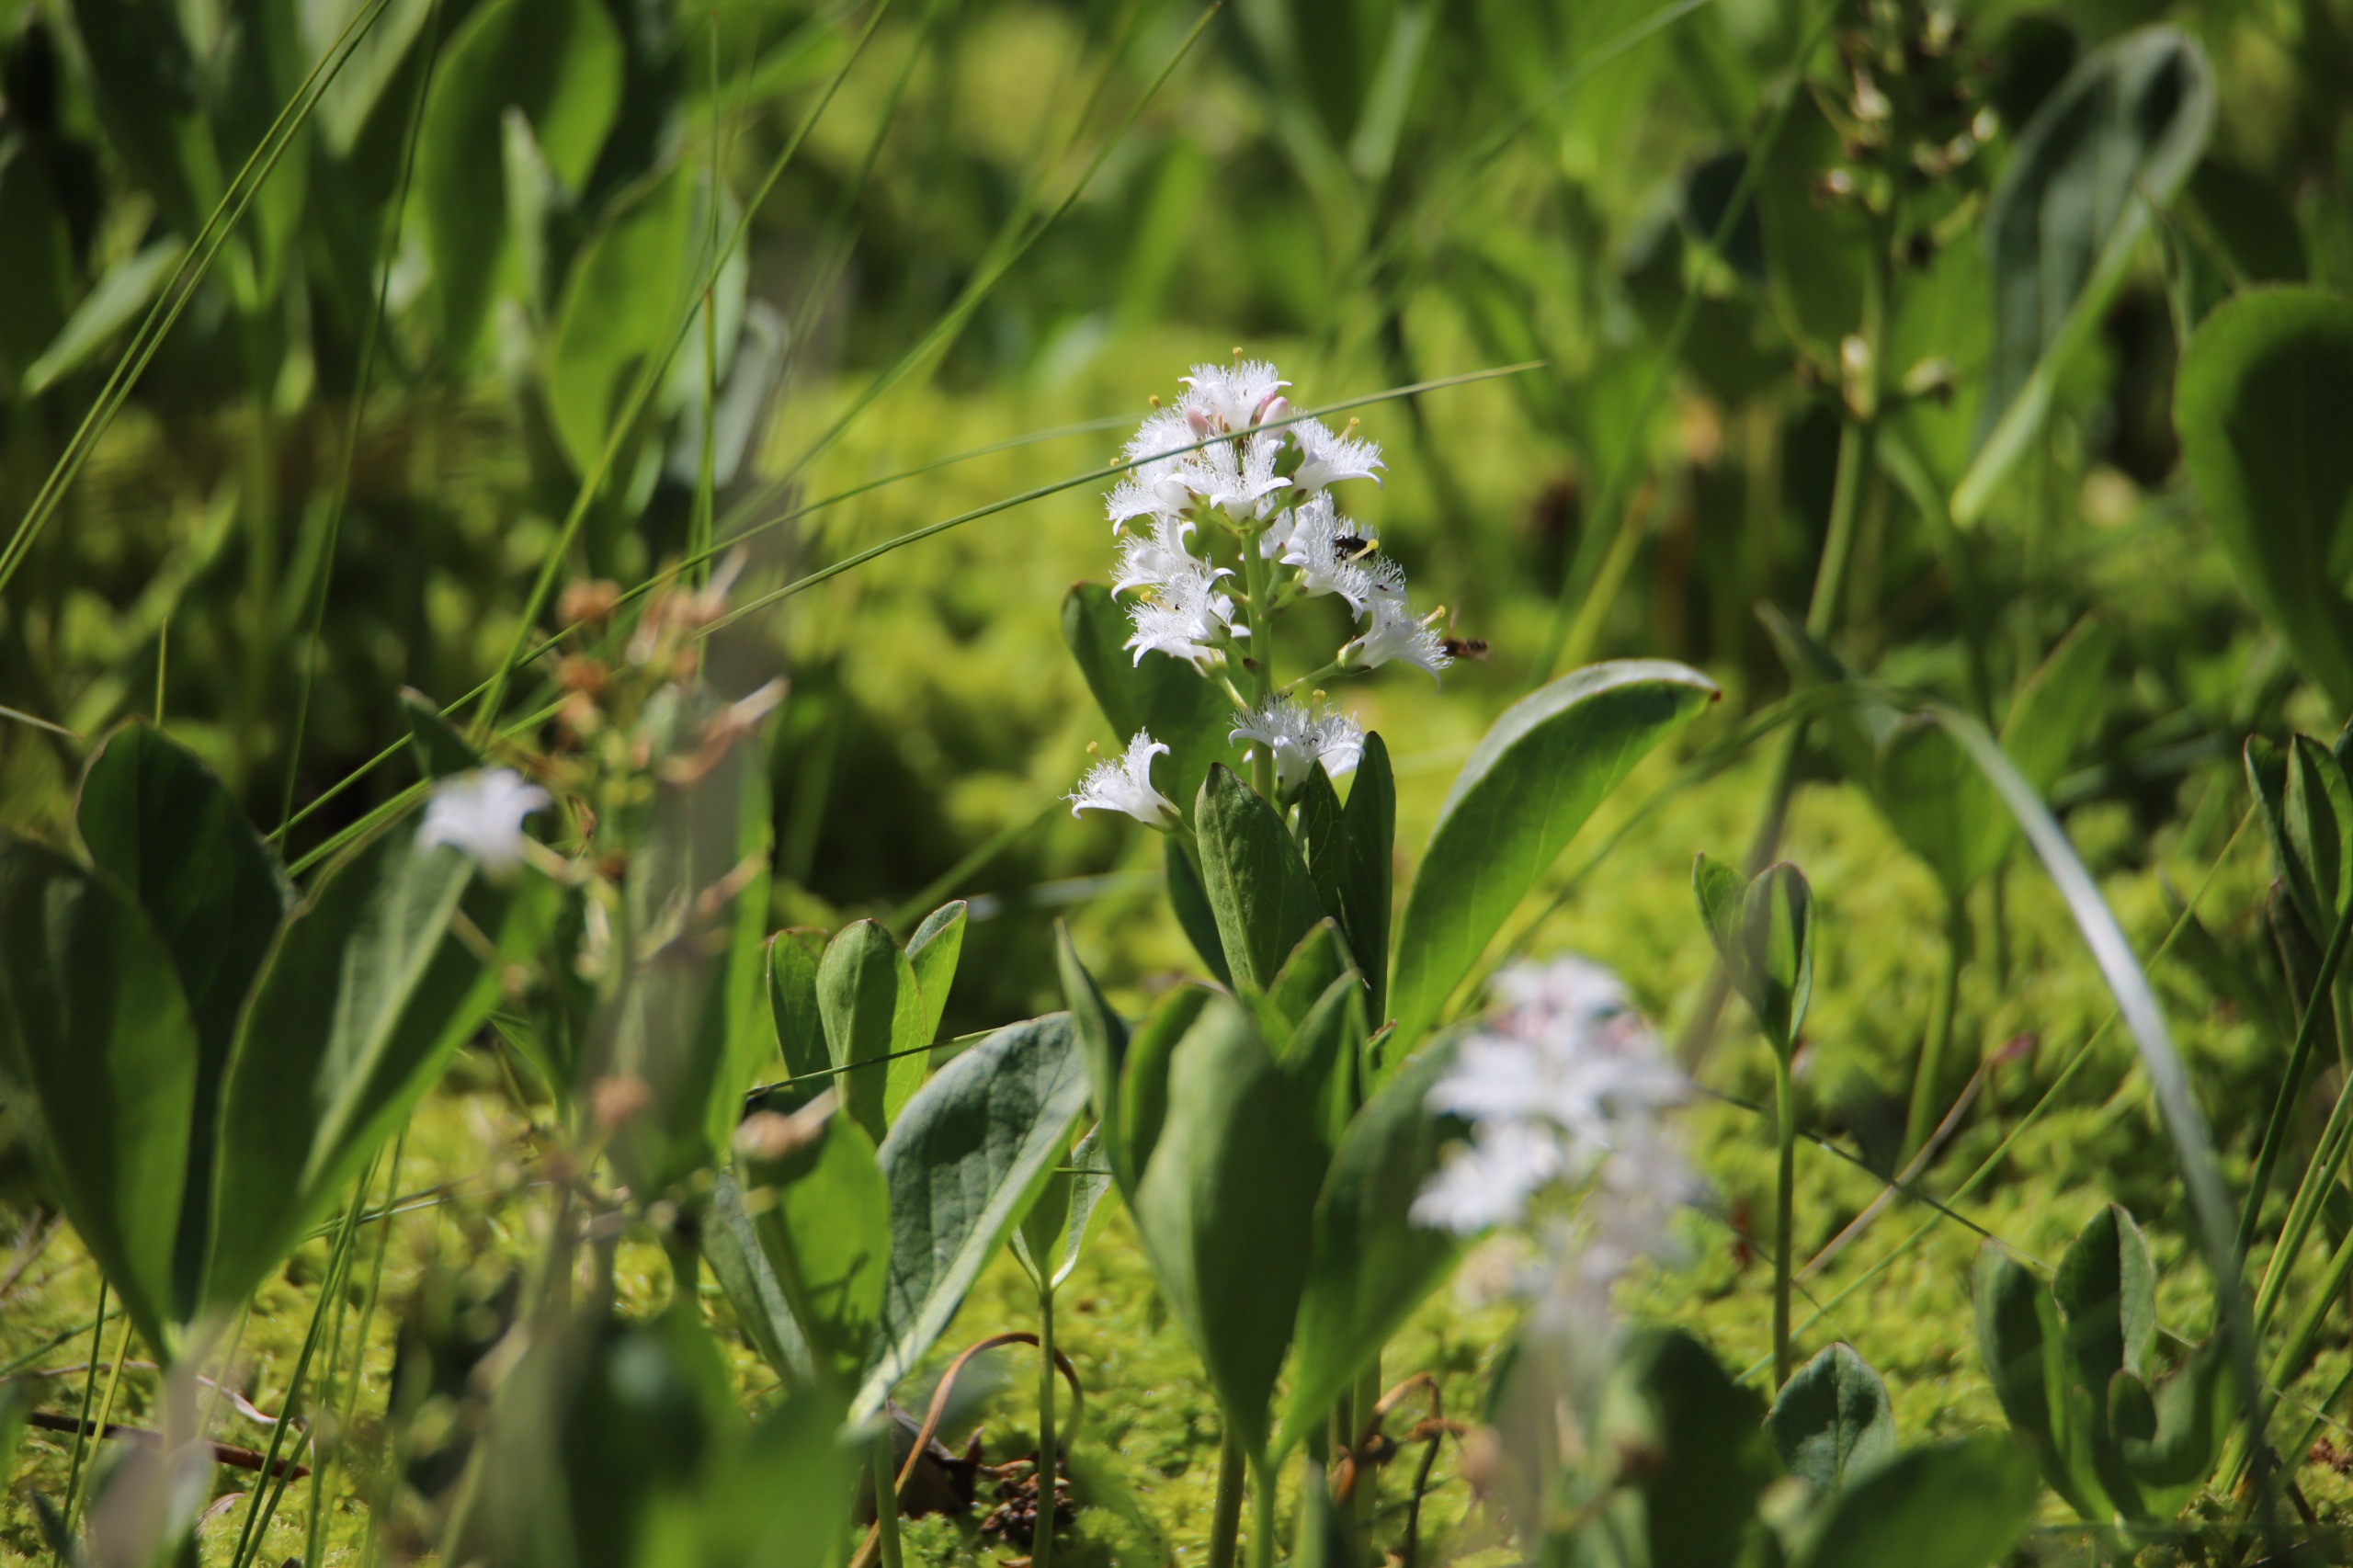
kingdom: Plantae
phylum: Tracheophyta
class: Magnoliopsida
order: Asterales
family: Menyanthaceae
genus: Menyanthes
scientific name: Menyanthes trifoliata
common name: Bukkeblad
